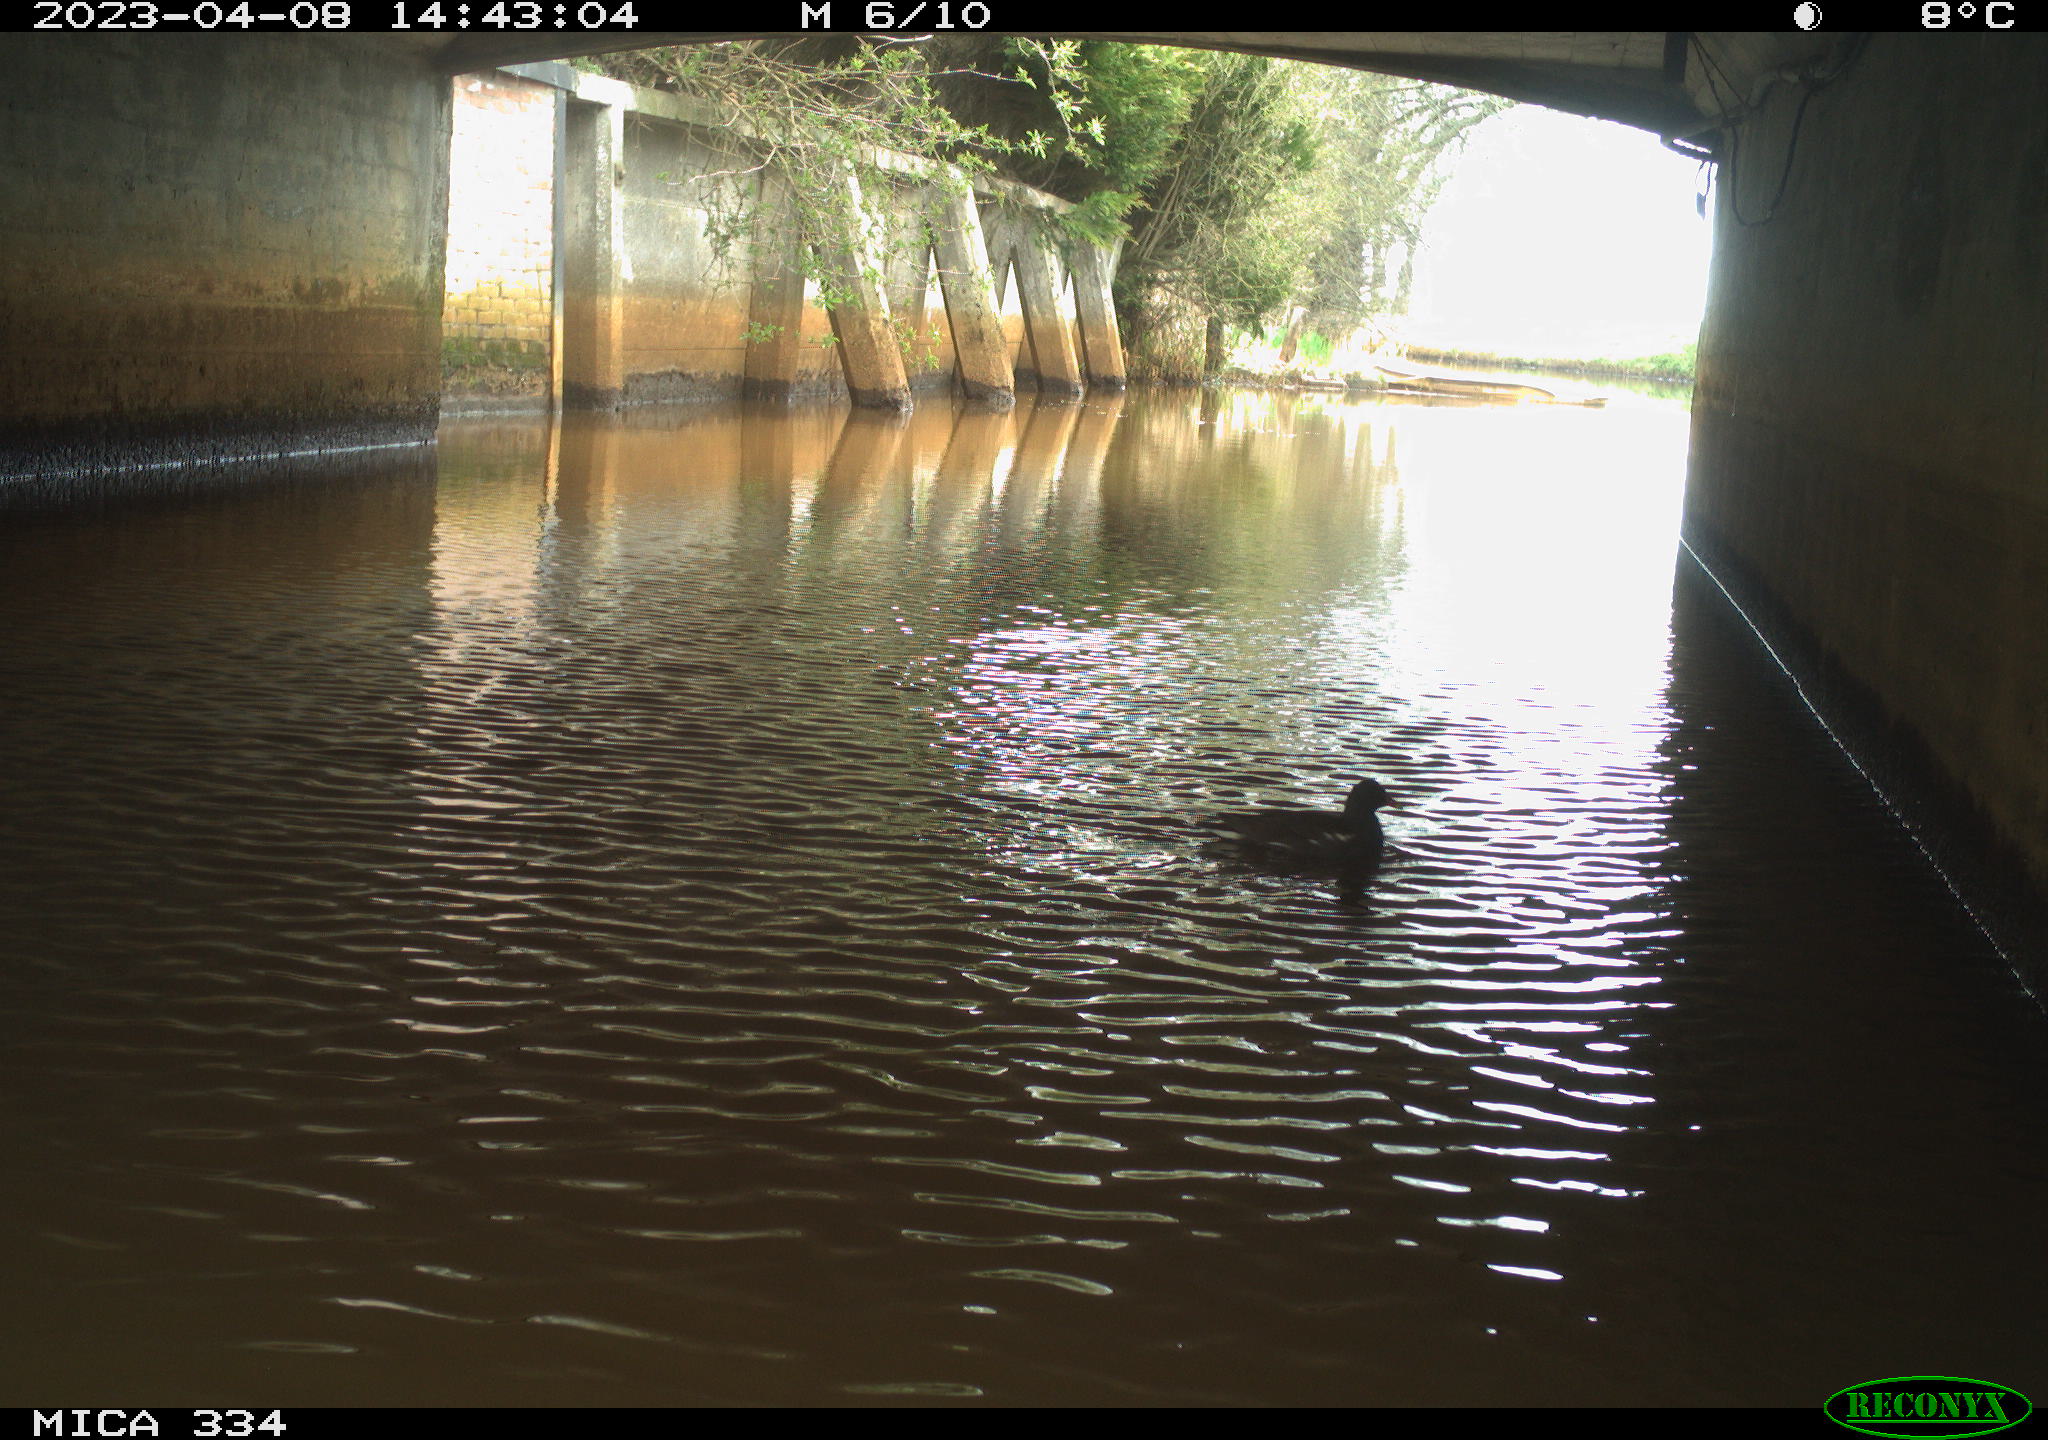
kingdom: Animalia
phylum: Chordata
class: Aves
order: Gruiformes
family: Rallidae
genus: Gallinula
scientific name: Gallinula chloropus
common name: Common moorhen
